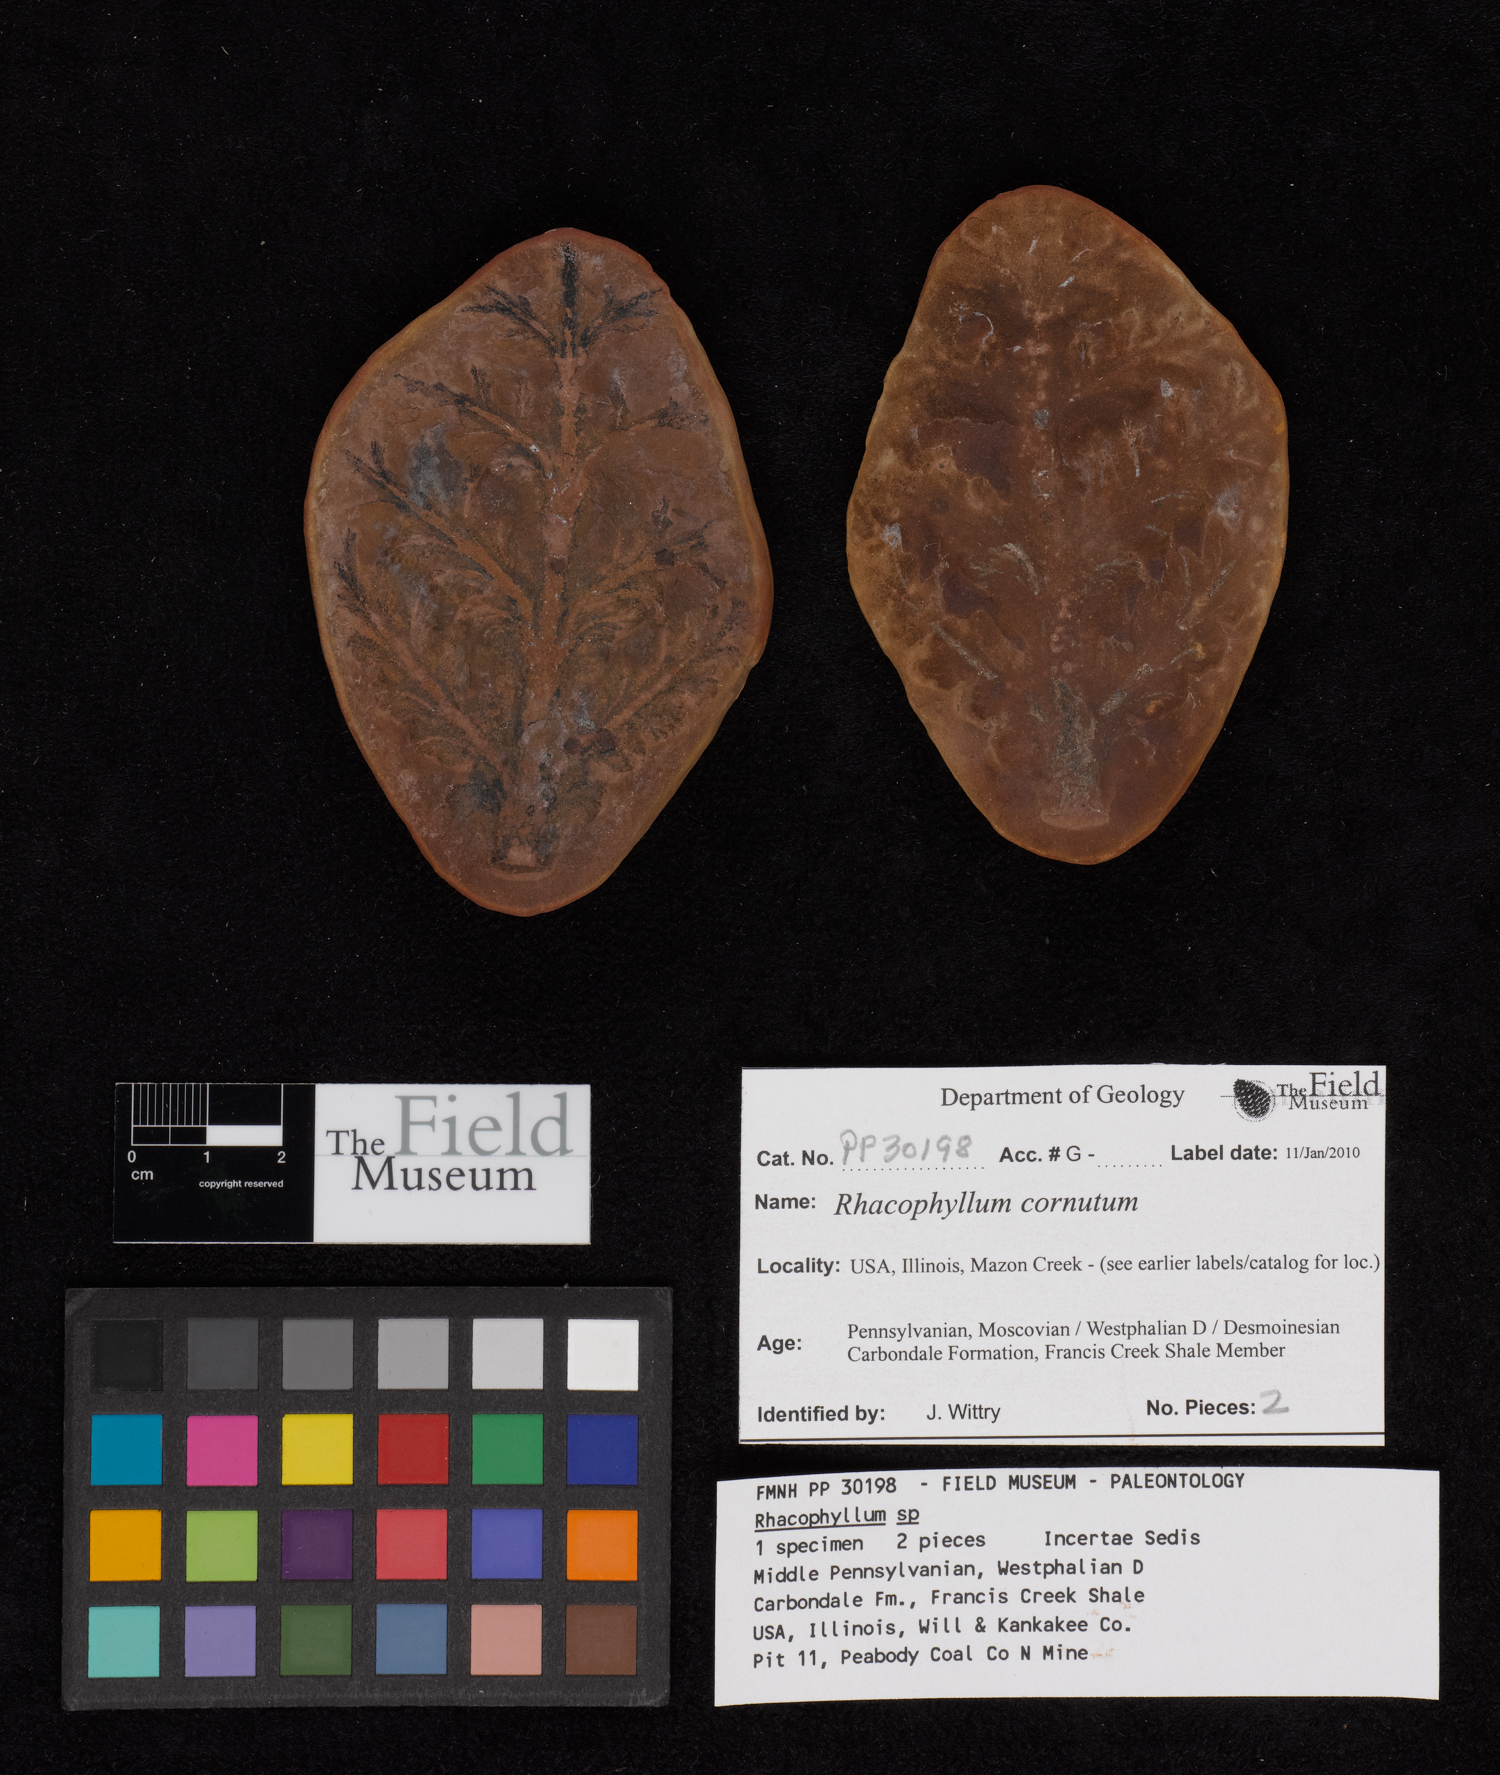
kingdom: Plantae
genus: Rhacophyllum
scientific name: Rhacophyllum
